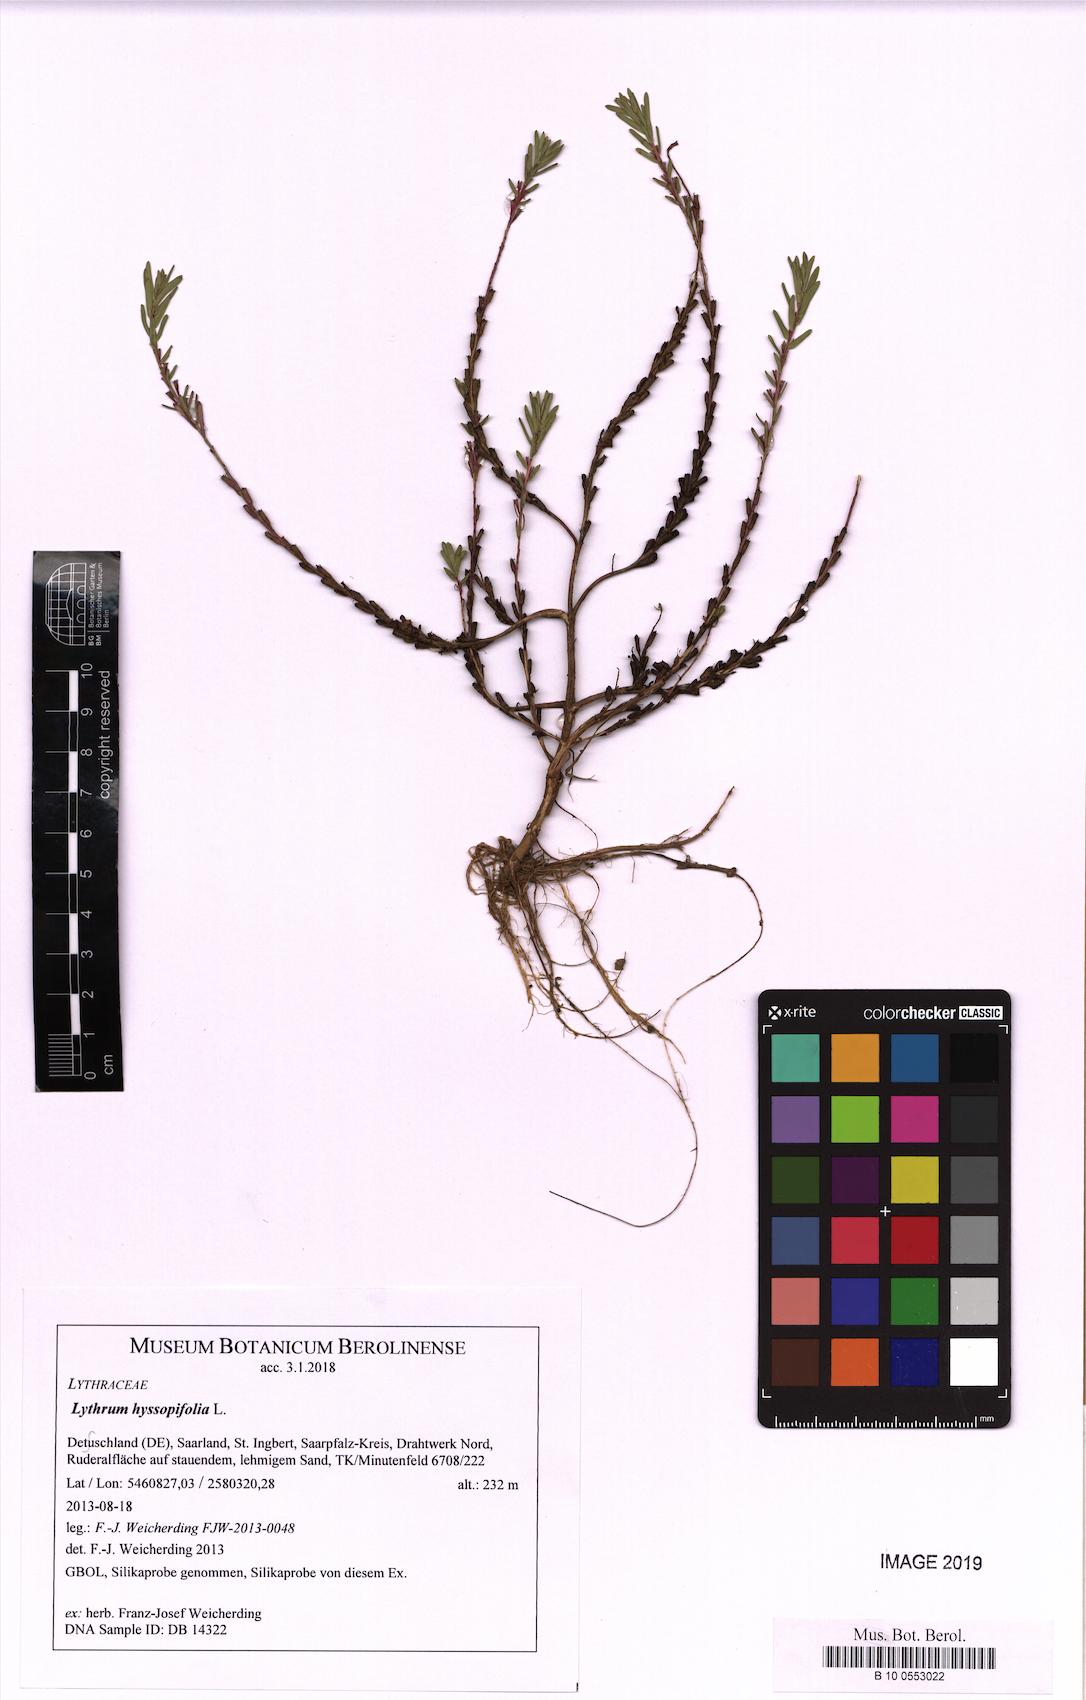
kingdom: Plantae
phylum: Tracheophyta
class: Magnoliopsida
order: Myrtales
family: Lythraceae
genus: Lythrum
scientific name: Lythrum hyssopifolia
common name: Grass-poly
